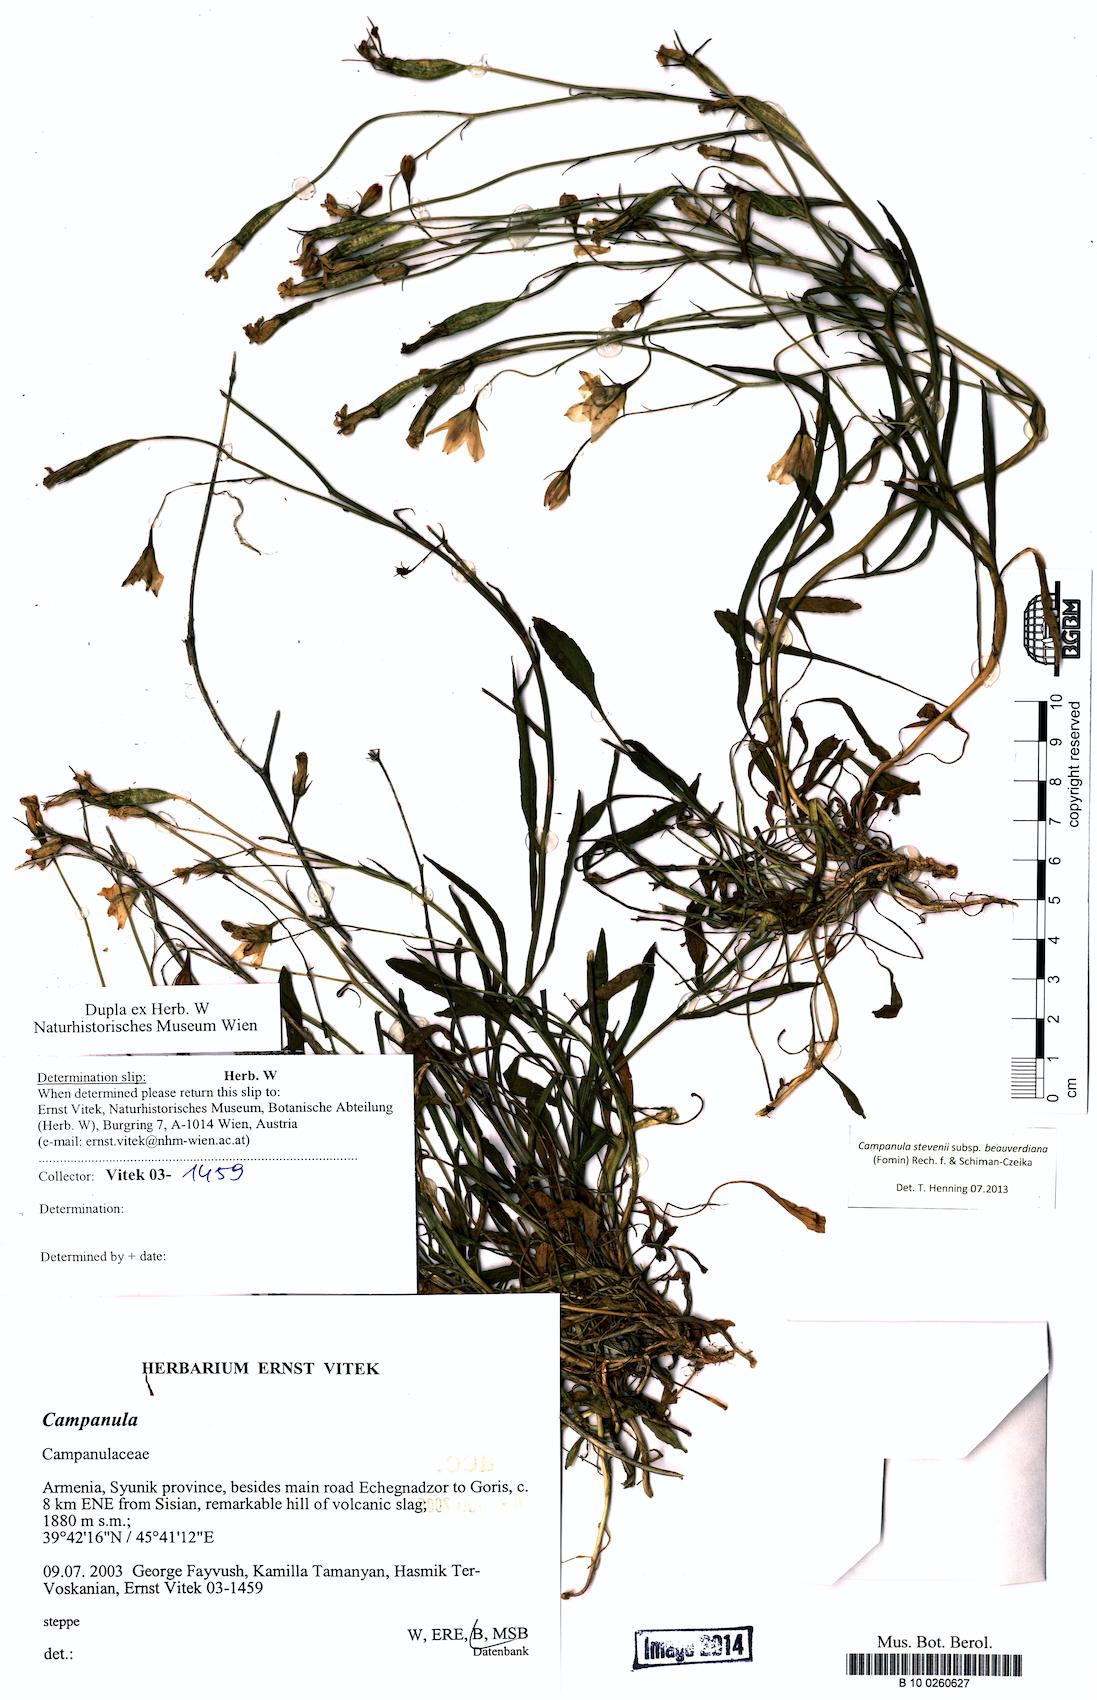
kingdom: Plantae
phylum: Tracheophyta
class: Magnoliopsida
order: Asterales
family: Campanulaceae
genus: Campanula
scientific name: Campanula stevenii
